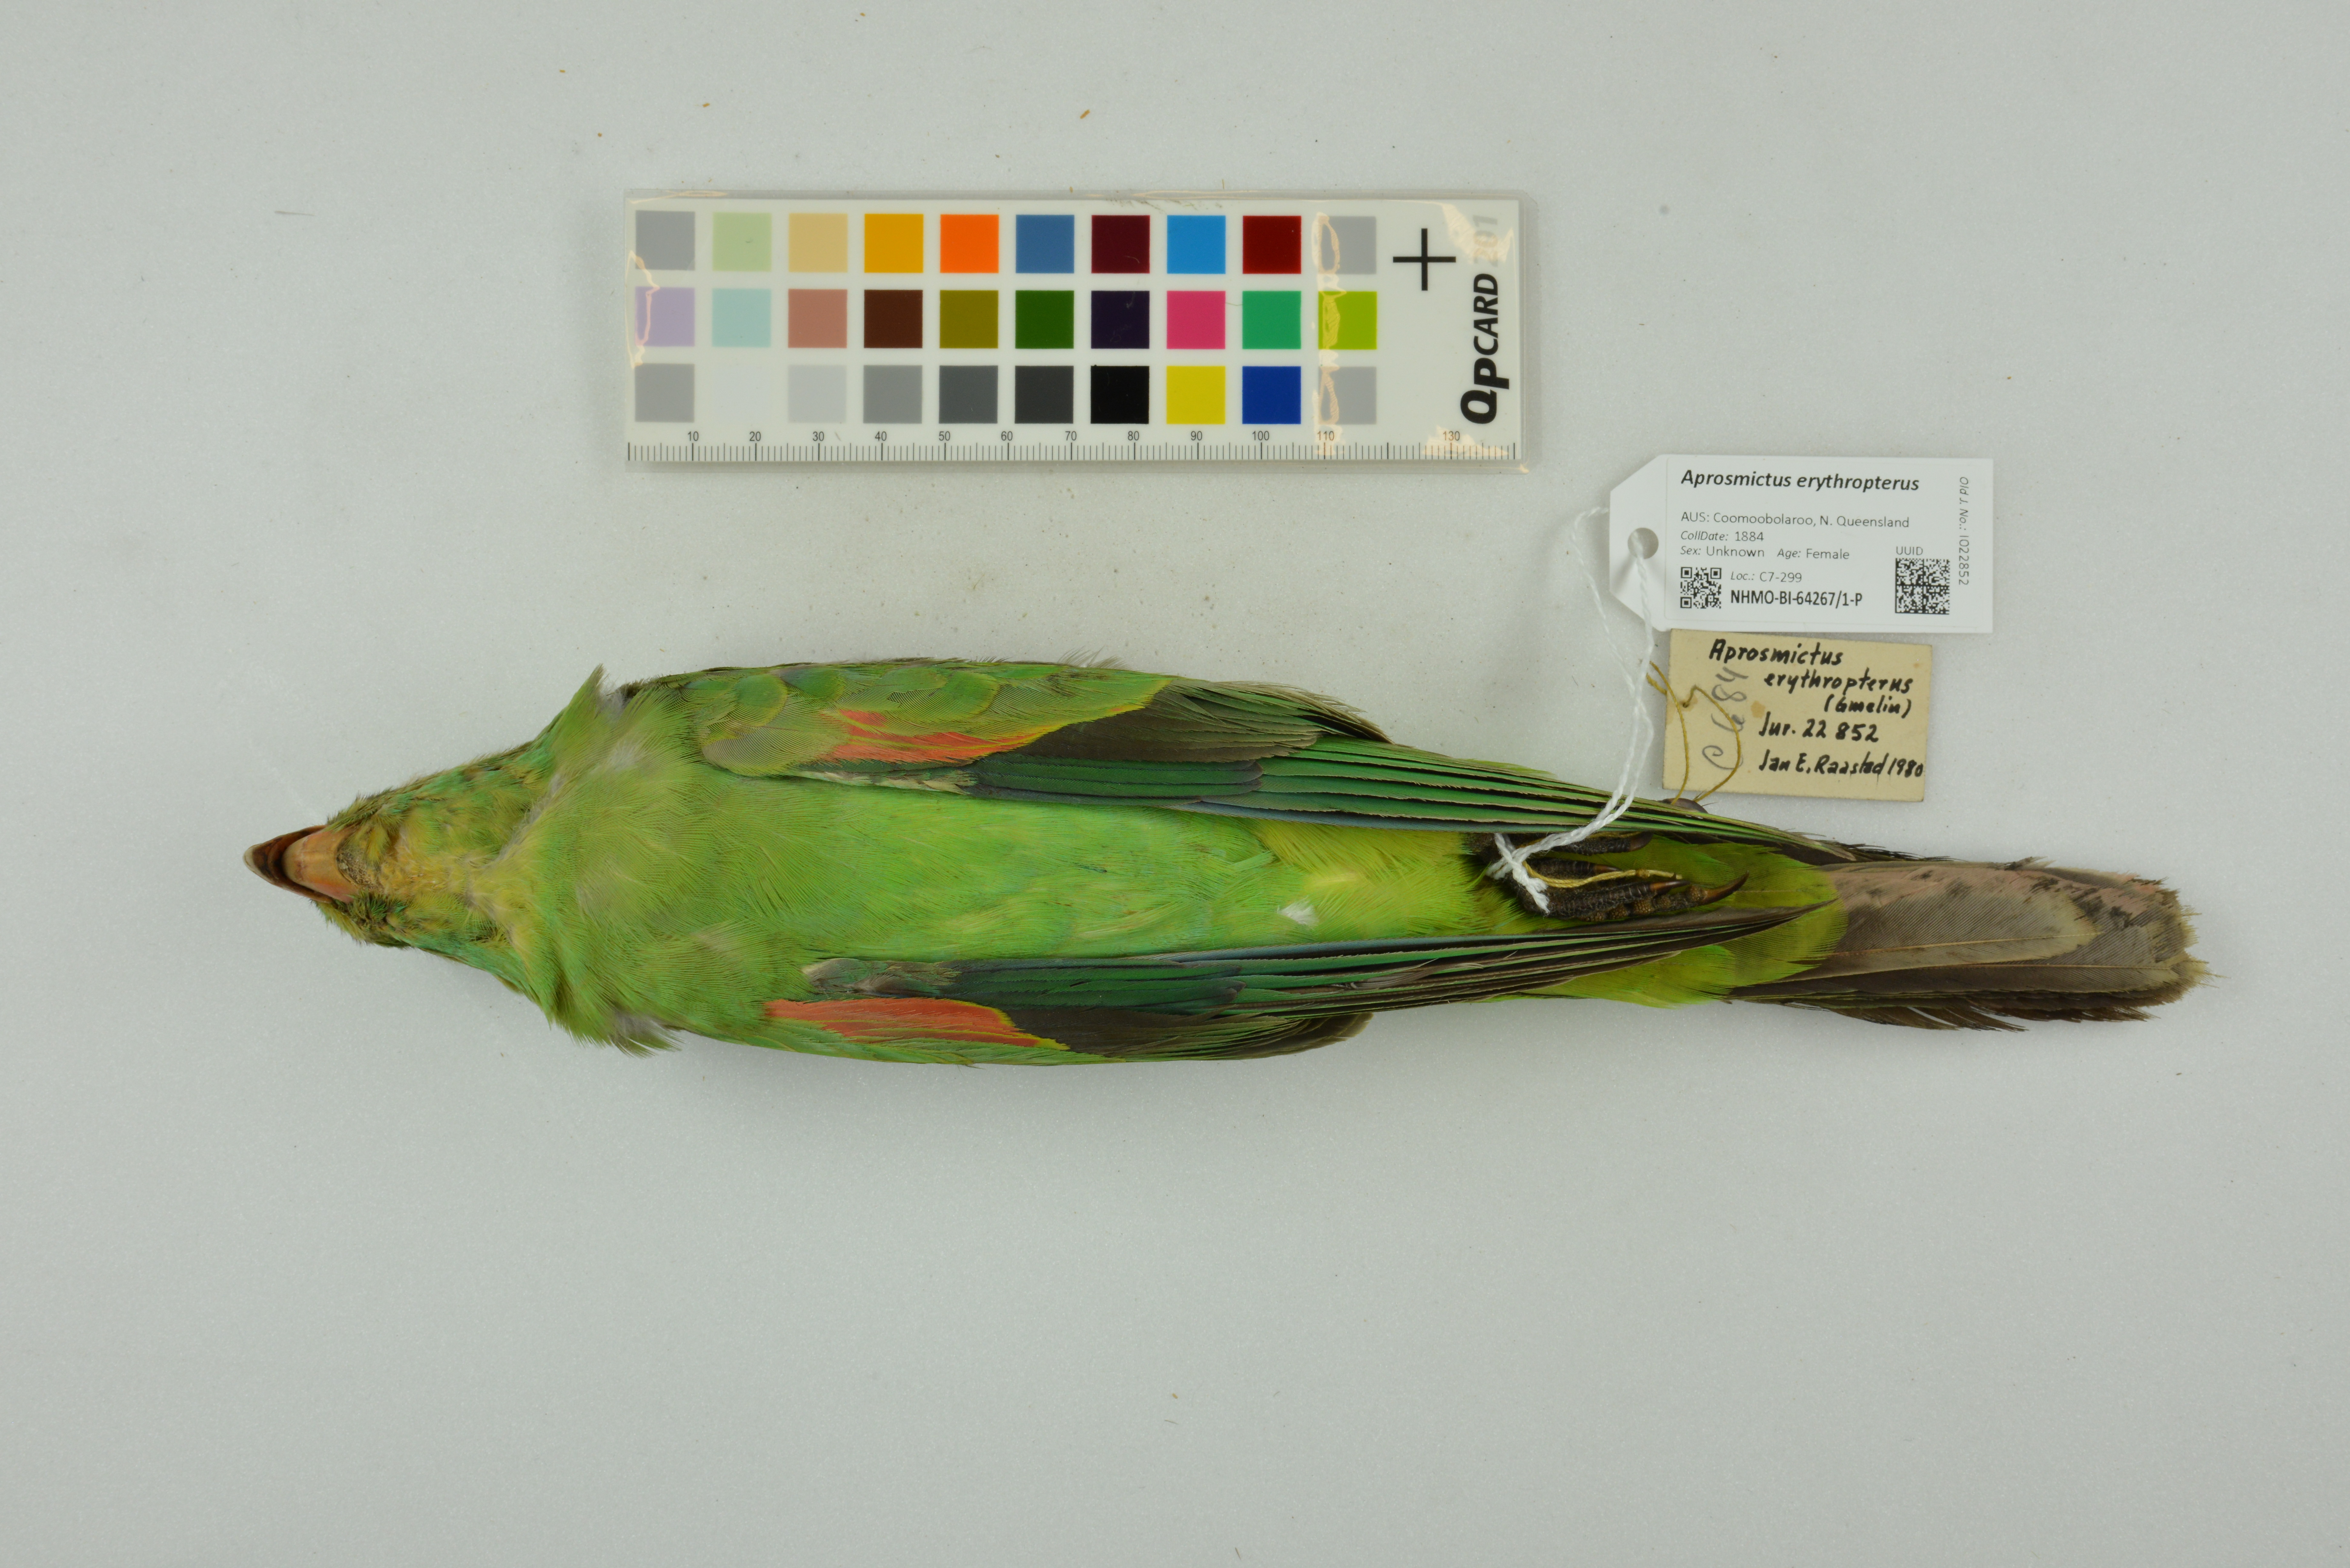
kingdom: Animalia
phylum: Chordata
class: Aves
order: Psittaciformes
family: Psittacidae
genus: Aprosmictus
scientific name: Aprosmictus erythropterus
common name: Red-winged parrot
